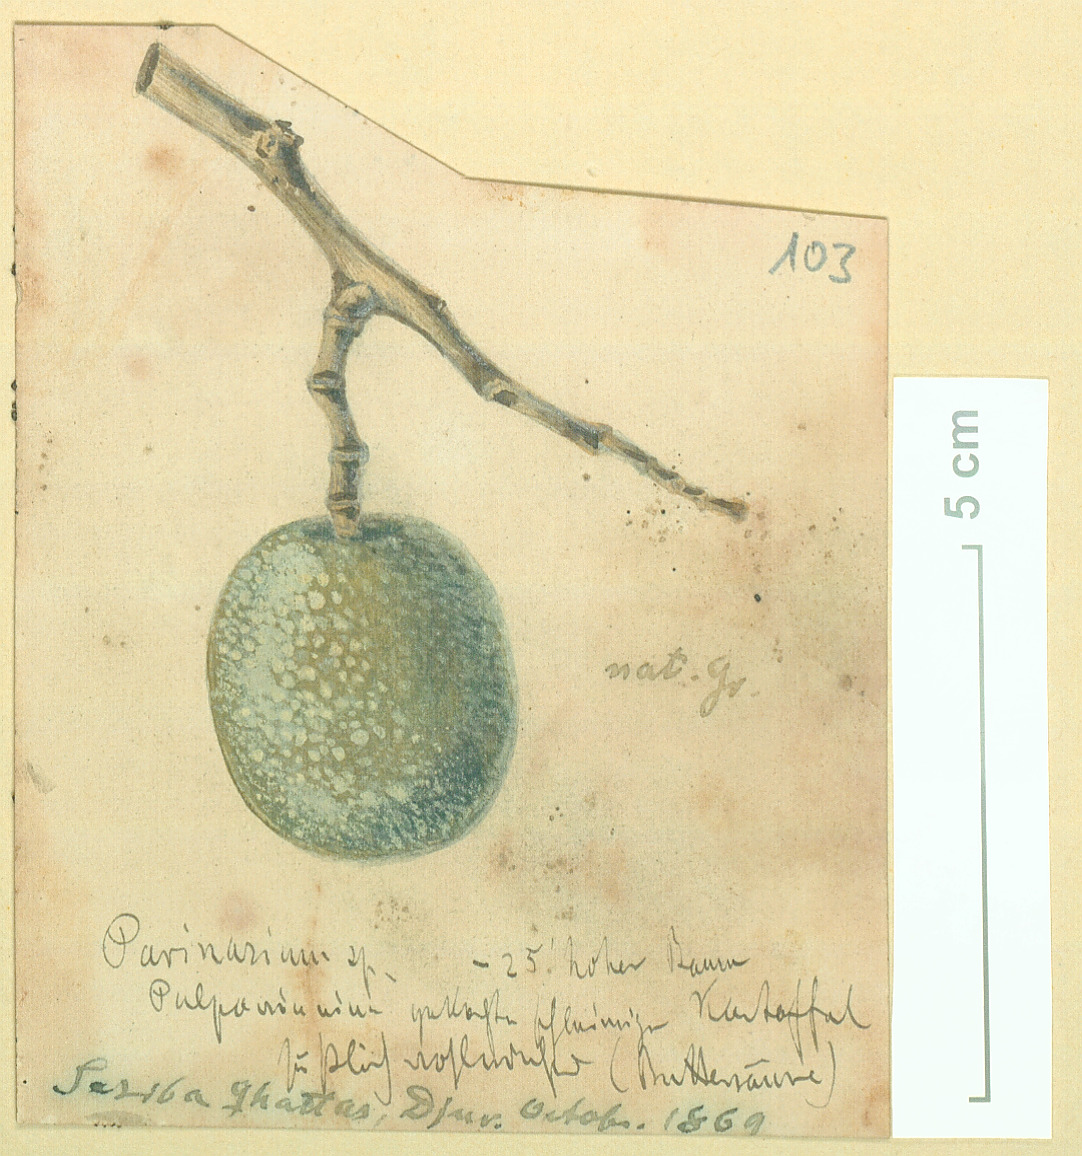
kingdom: Plantae
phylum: Tracheophyta
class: Magnoliopsida
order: Rosales
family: Rosaceae
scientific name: Rosaceae
